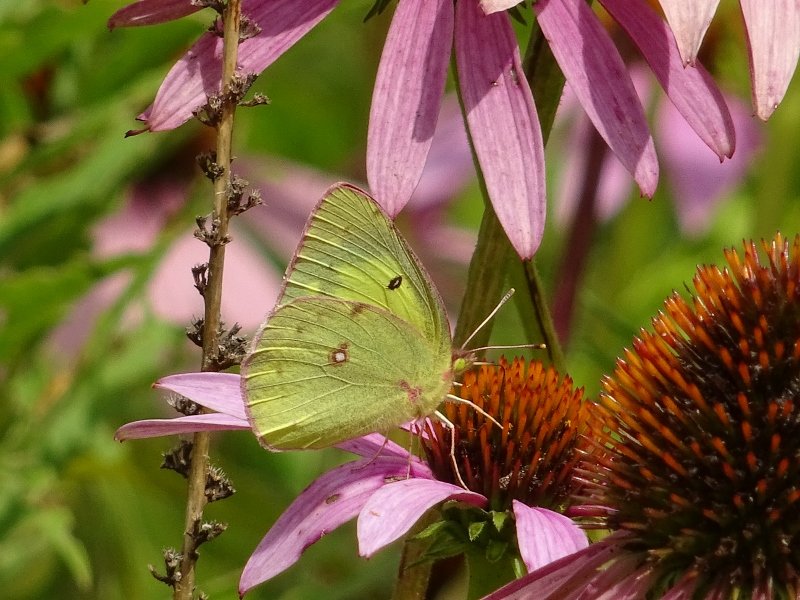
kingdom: Animalia
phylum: Arthropoda
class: Insecta
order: Lepidoptera
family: Pieridae
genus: Colias
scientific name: Colias philodice
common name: Clouded Sulphur
